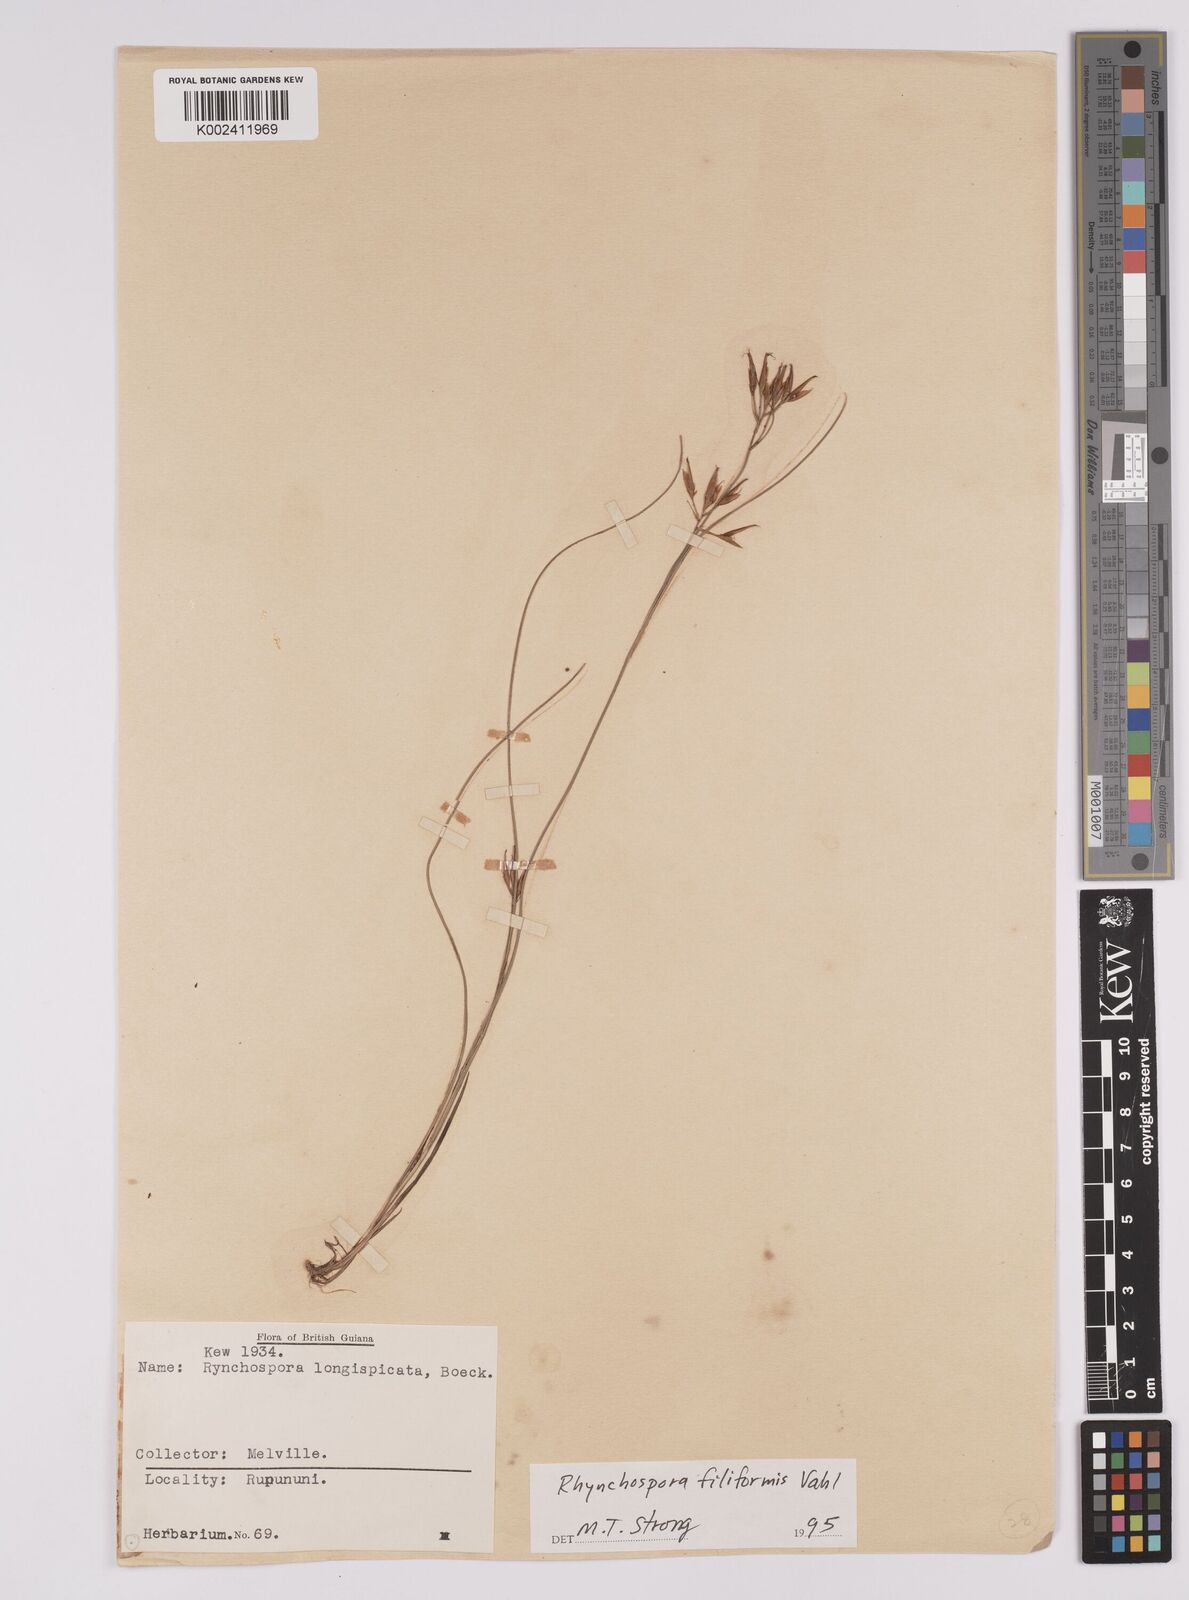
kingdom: Plantae
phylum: Tracheophyta
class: Liliopsida
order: Poales
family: Cyperaceae
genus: Rhynchospora
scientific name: Rhynchospora filiformis
